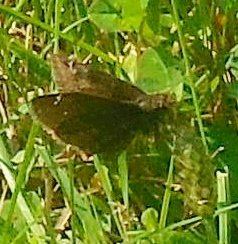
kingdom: Animalia
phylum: Arthropoda
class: Insecta
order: Lepidoptera
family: Hesperiidae
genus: Gesta
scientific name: Gesta
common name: Wild Indigo Duskywing
